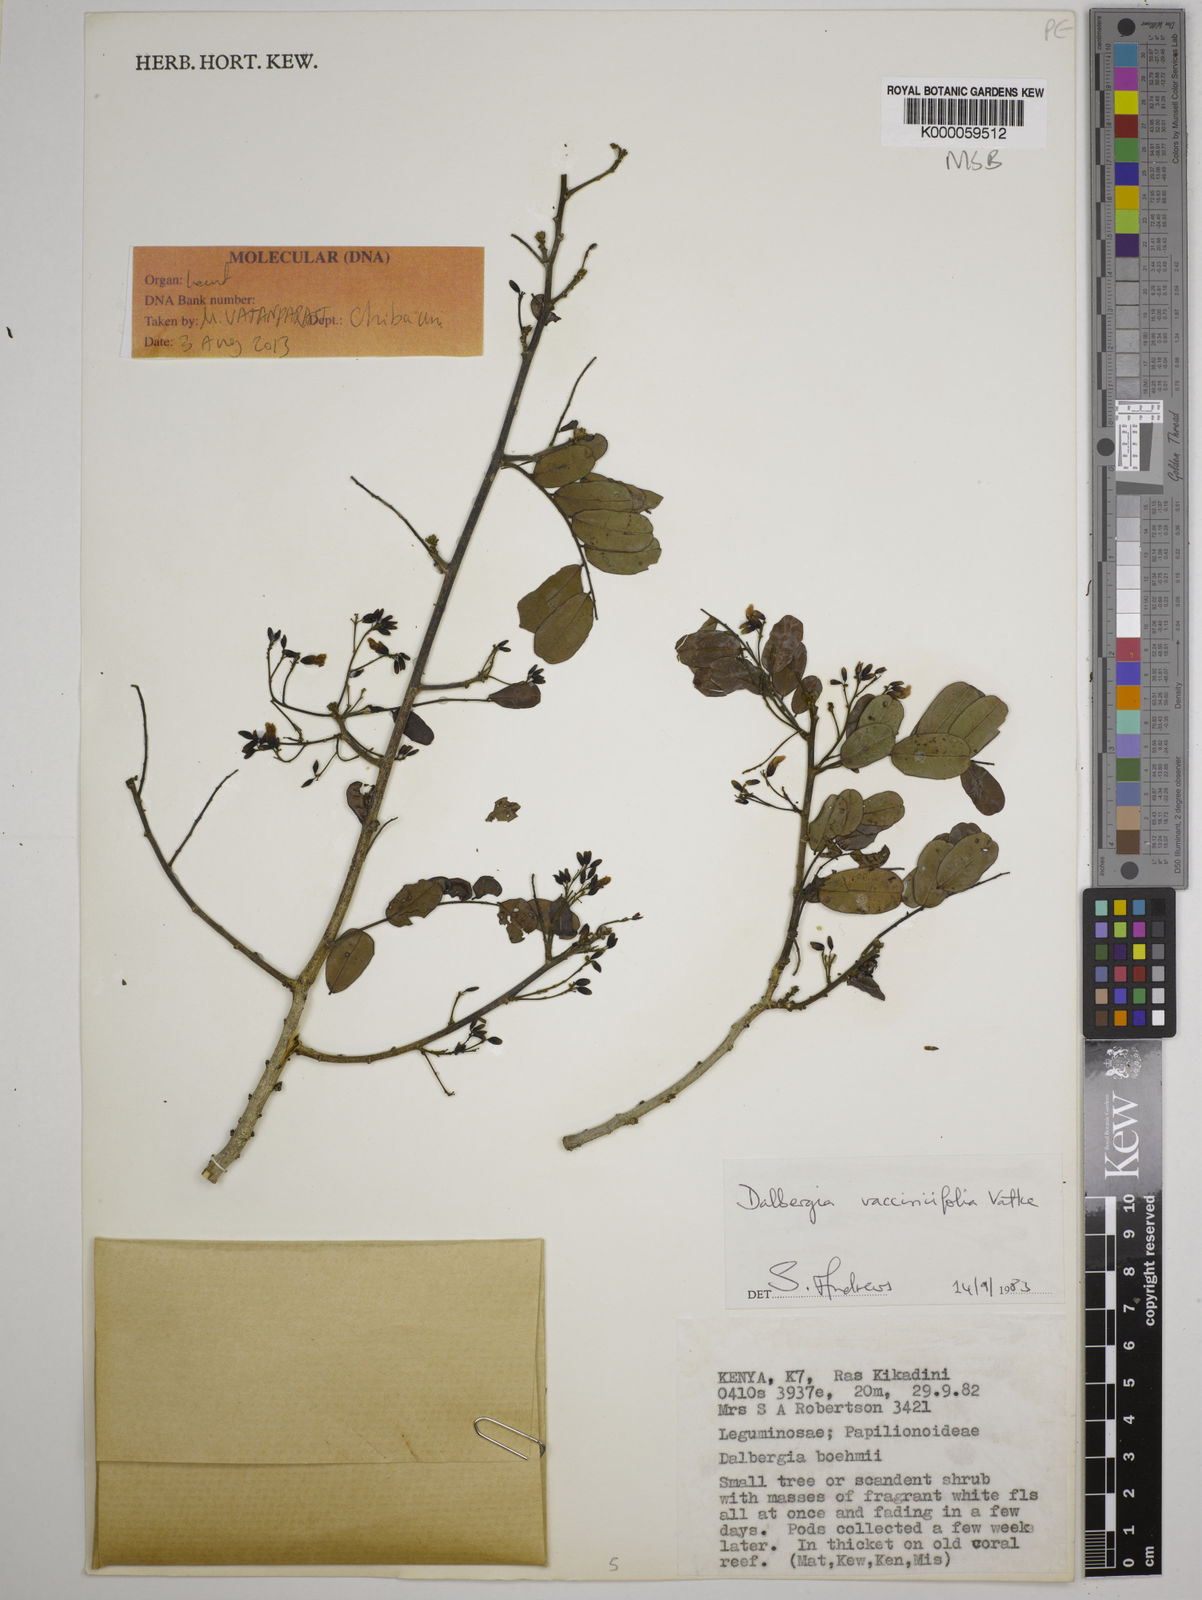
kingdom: Plantae
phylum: Tracheophyta
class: Magnoliopsida
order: Fabales
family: Fabaceae
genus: Dalbergia
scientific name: Dalbergia vacciniifolia
